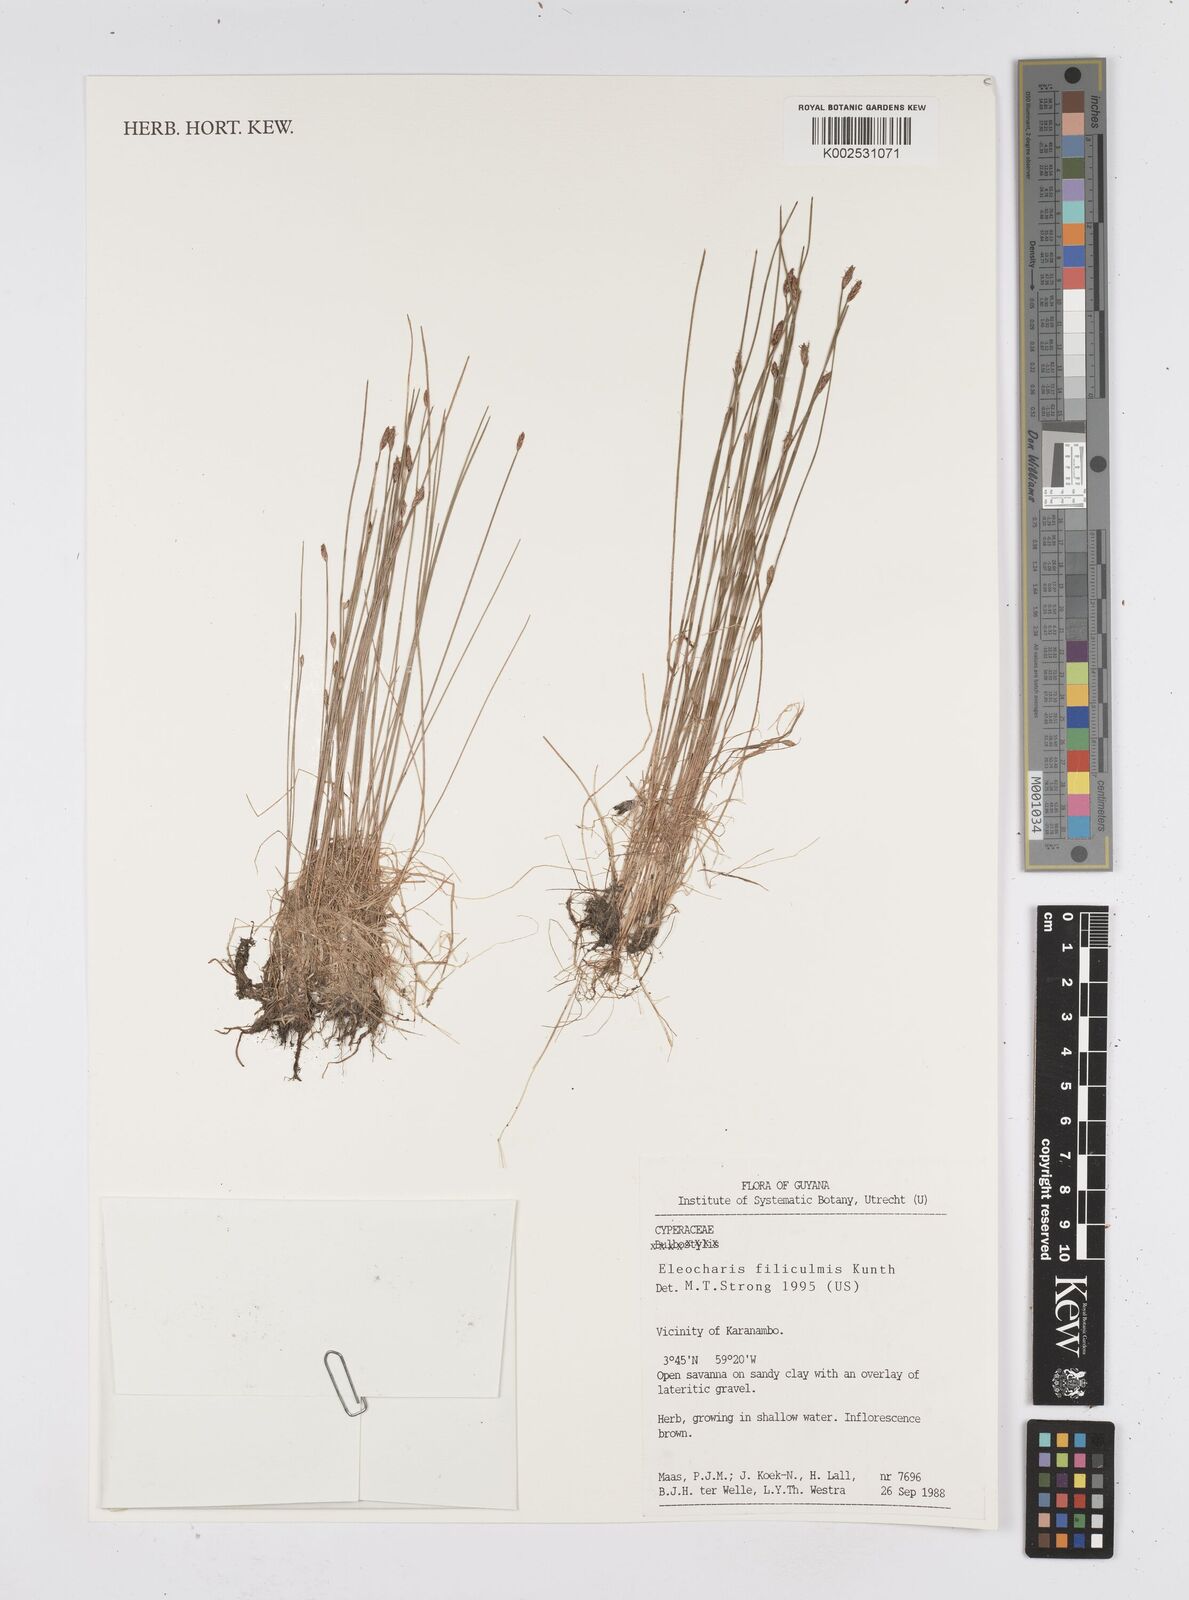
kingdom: Plantae
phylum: Tracheophyta
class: Liliopsida
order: Poales
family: Cyperaceae
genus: Eleocharis
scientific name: Eleocharis filiculmis
